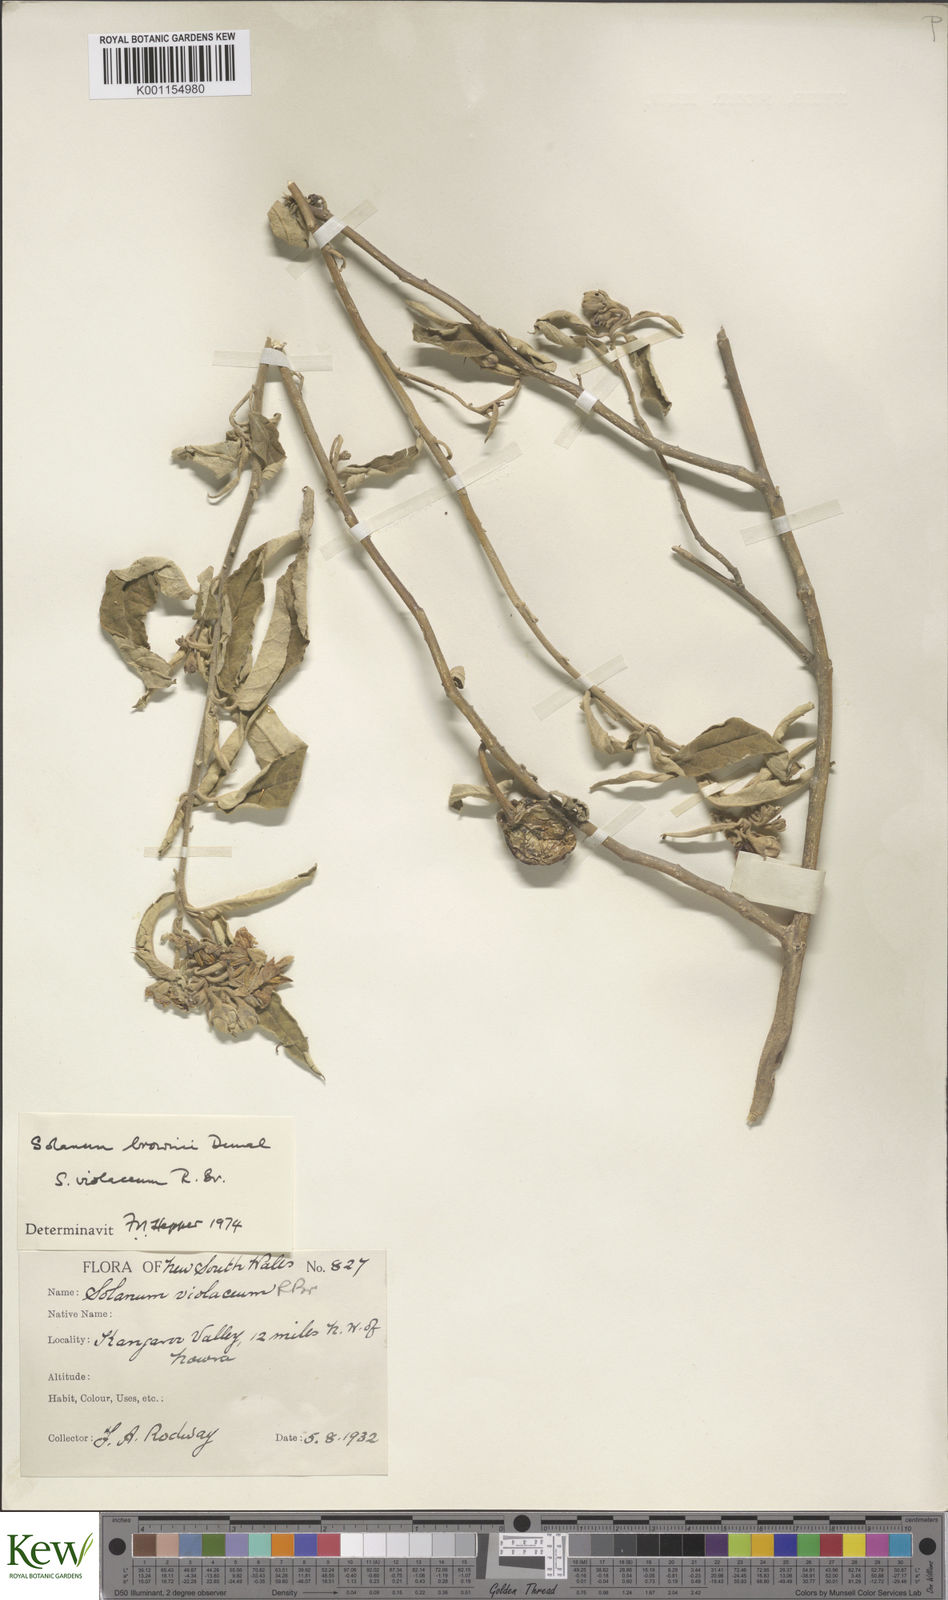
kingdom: Plantae
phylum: Tracheophyta
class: Magnoliopsida
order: Solanales
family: Solanaceae
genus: Solanum
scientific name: Solanum brownii
